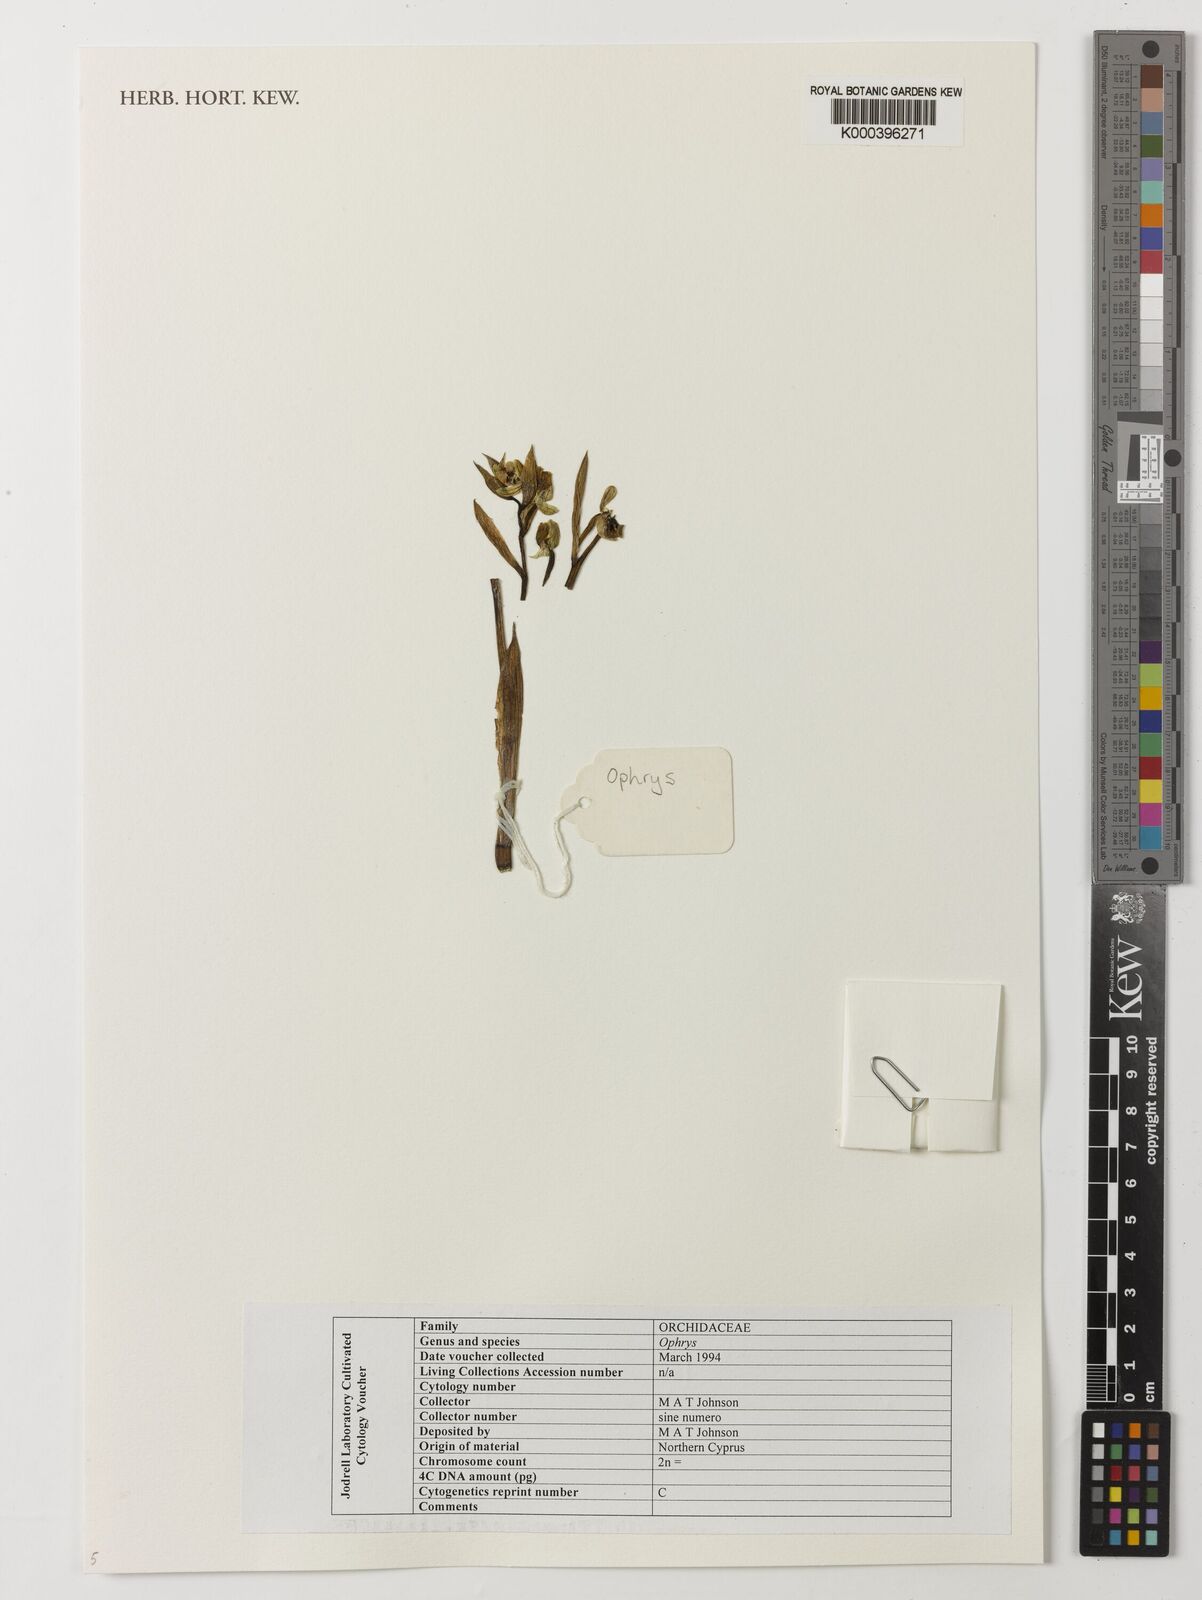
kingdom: Plantae
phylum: Tracheophyta
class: Liliopsida
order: Asparagales
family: Orchidaceae
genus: Ophrys
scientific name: Ophrys
